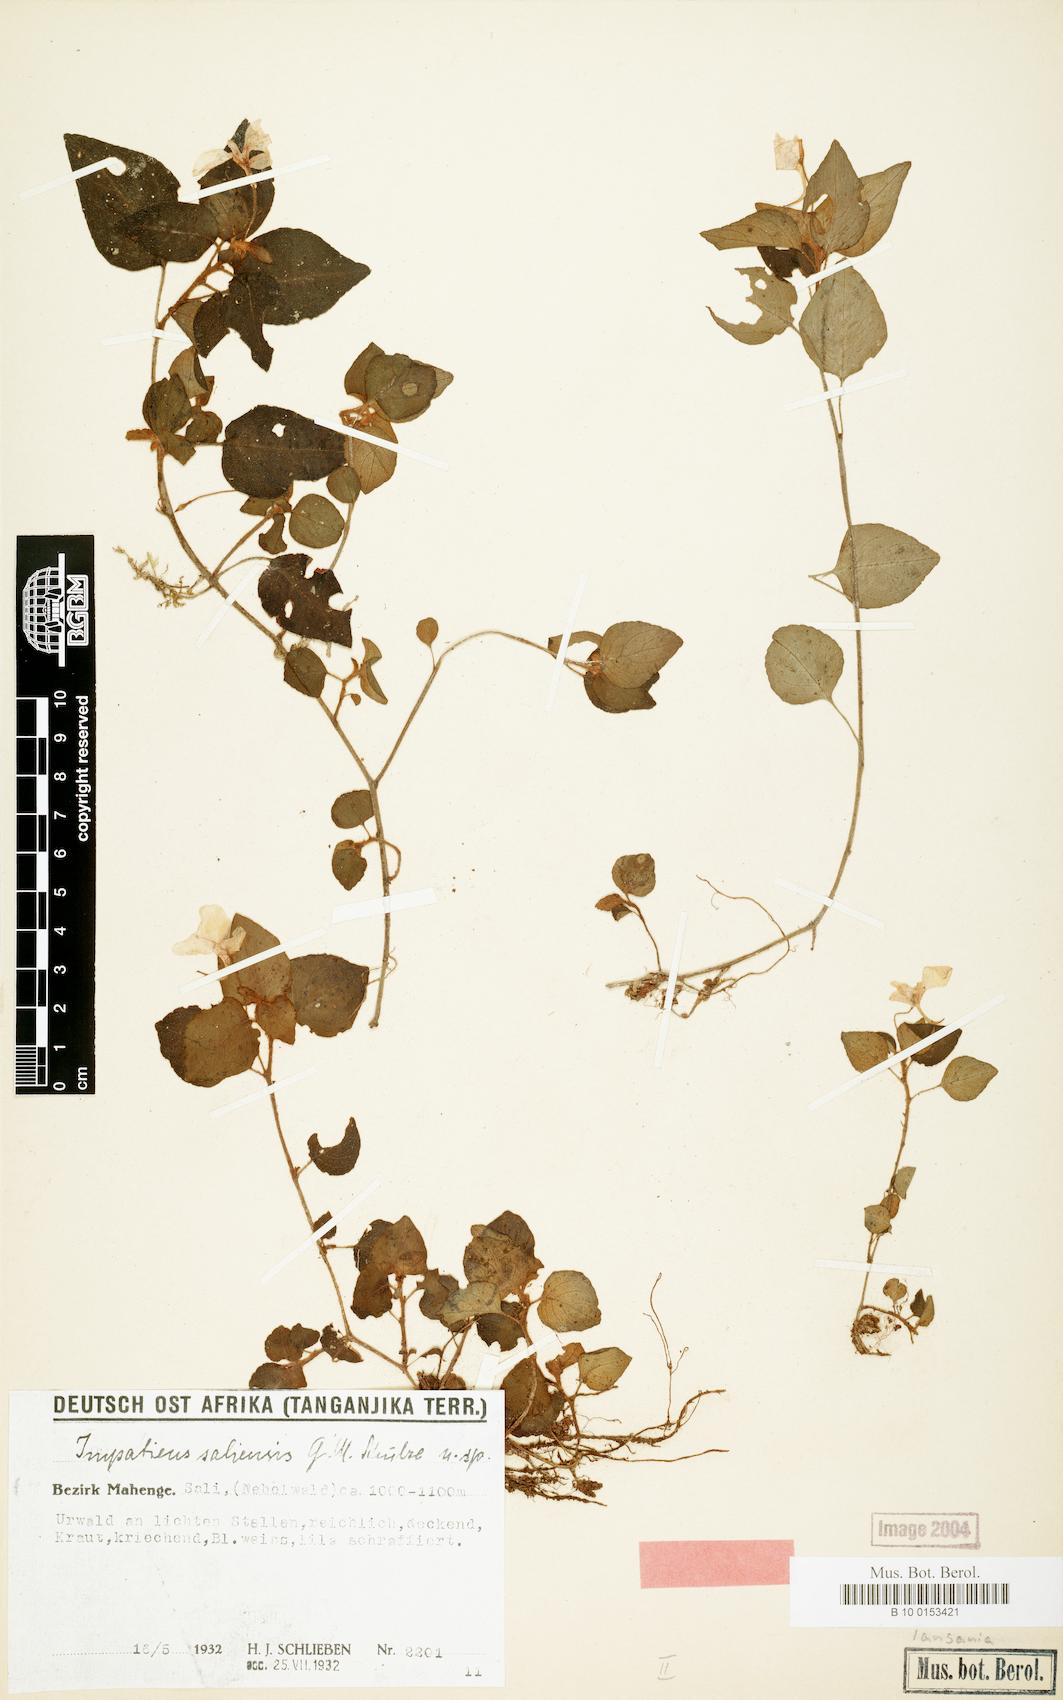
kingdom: Plantae
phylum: Tracheophyta
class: Magnoliopsida
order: Ericales
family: Balsaminaceae
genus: Impatiens
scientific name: Impatiens saliensis
